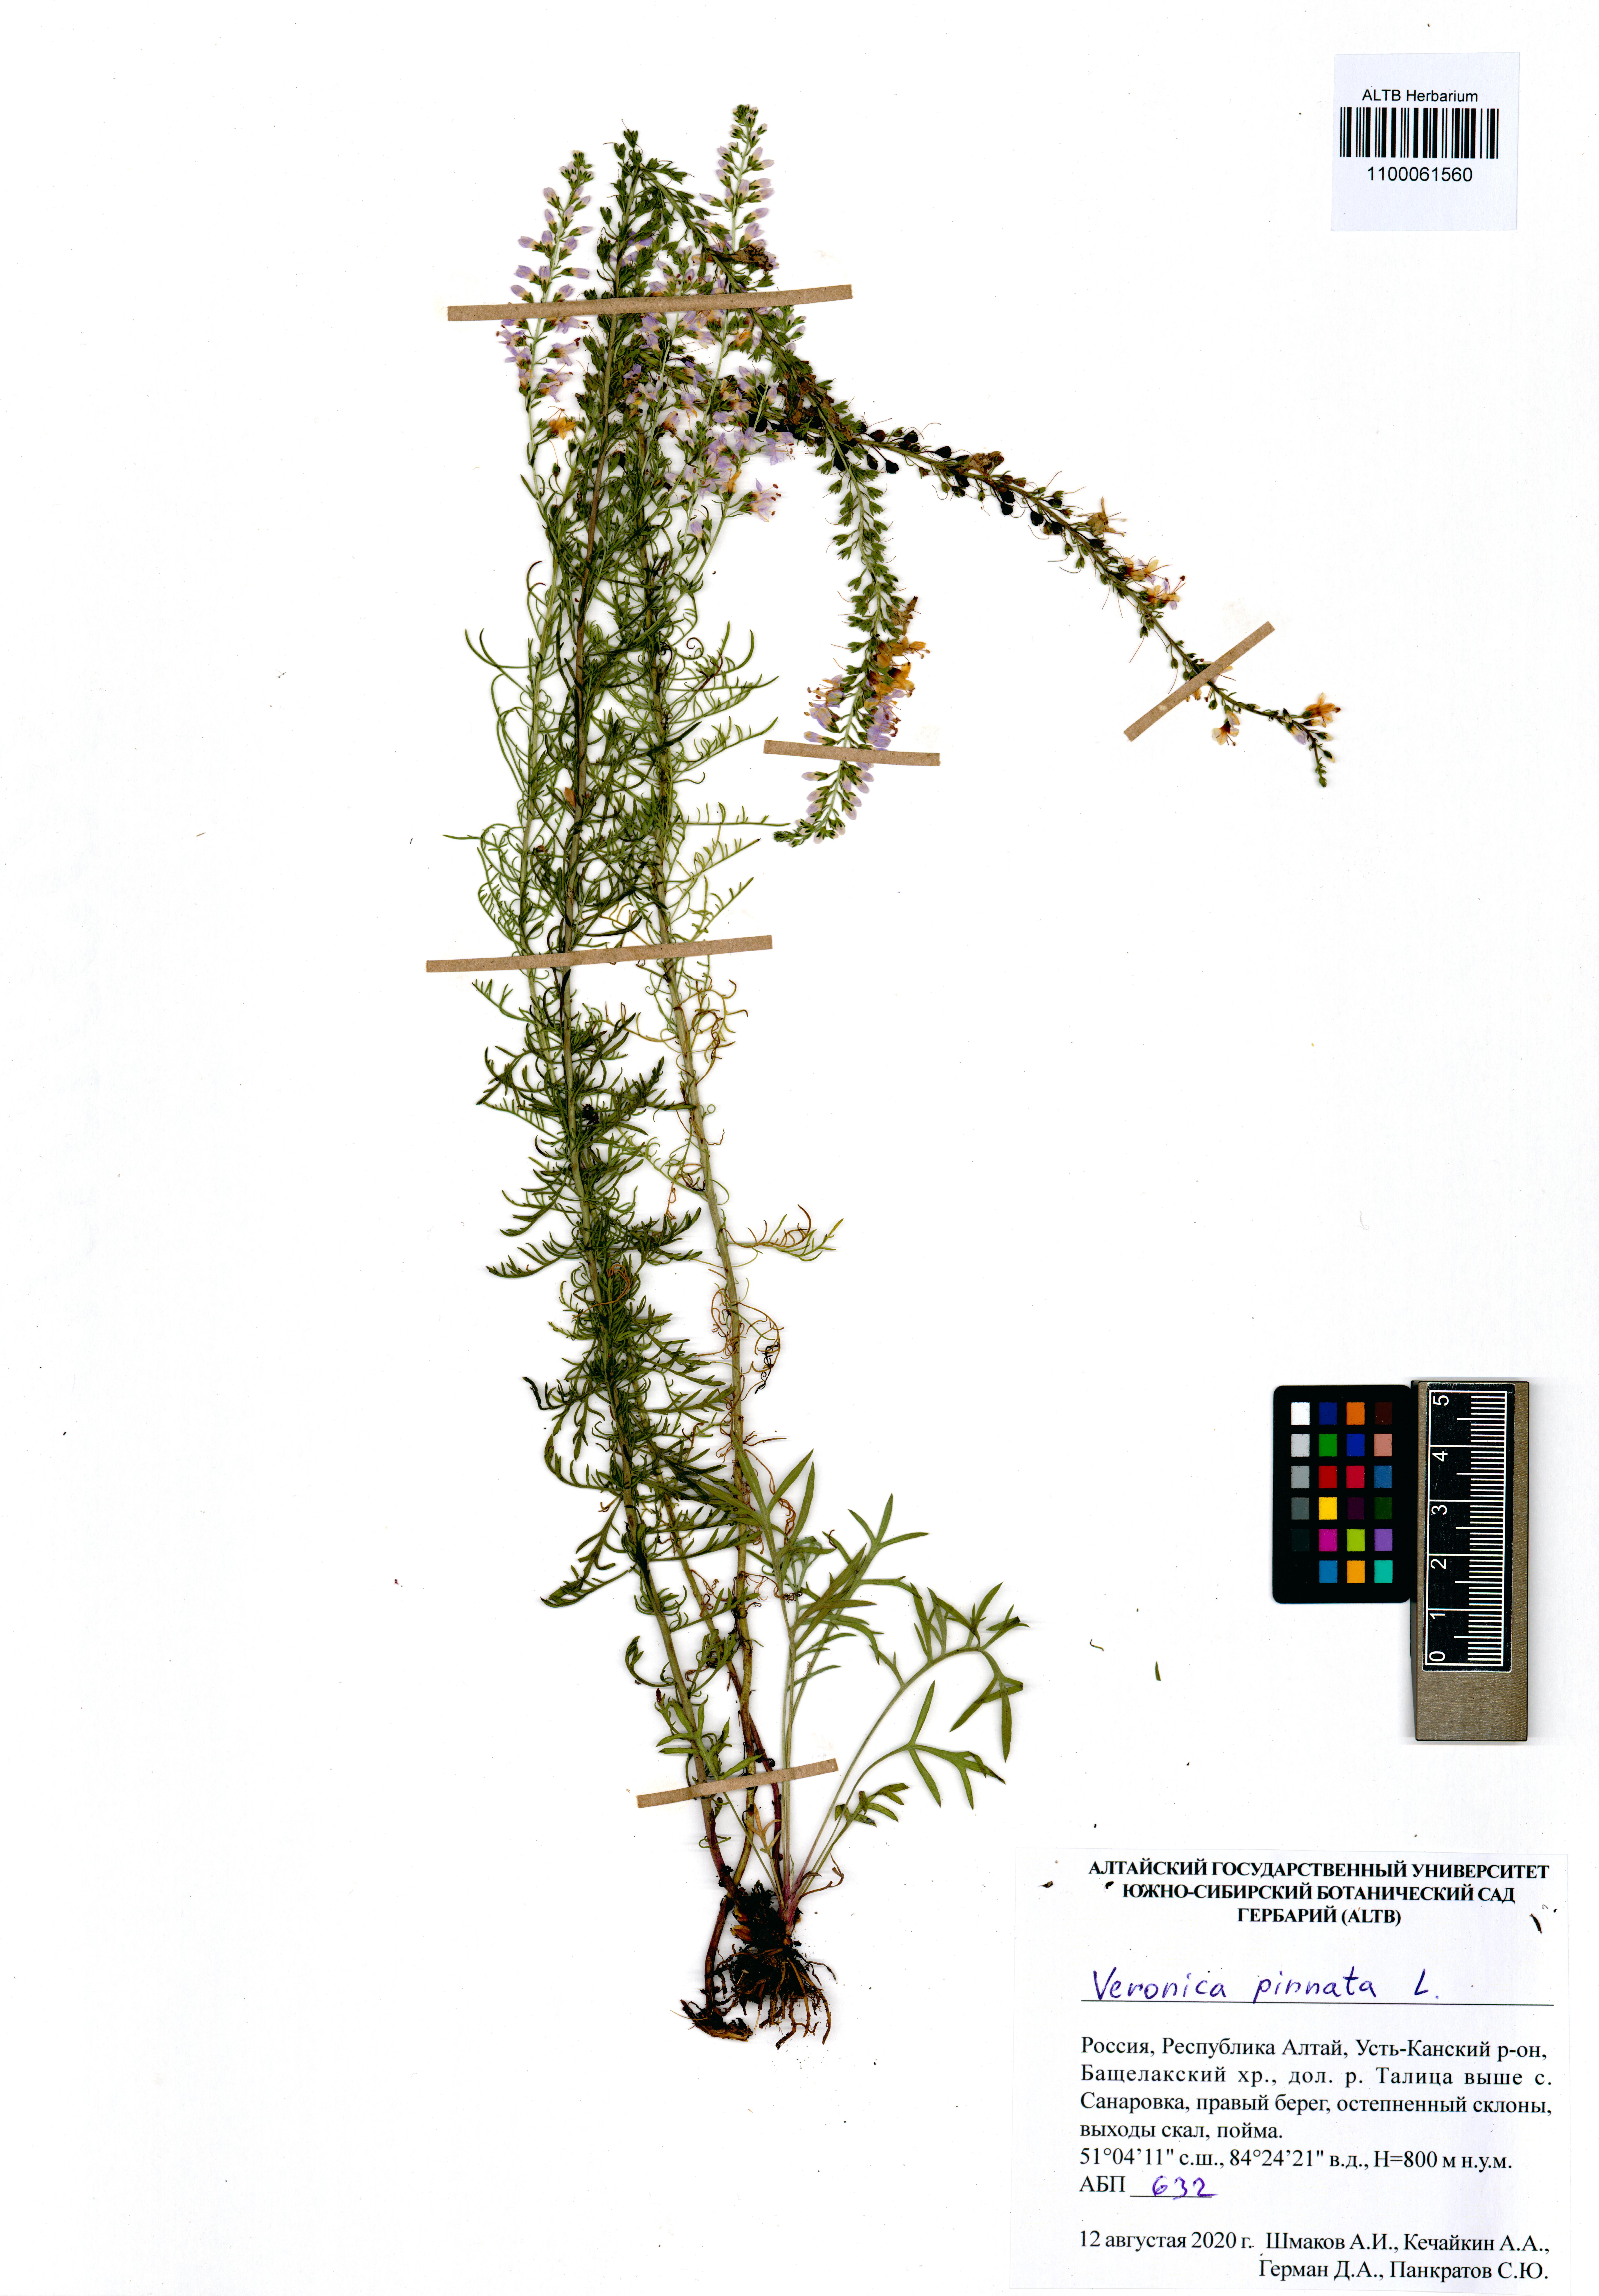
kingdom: Plantae
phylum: Tracheophyta
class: Magnoliopsida
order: Lamiales
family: Plantaginaceae
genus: Veronica
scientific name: Veronica pinnata
